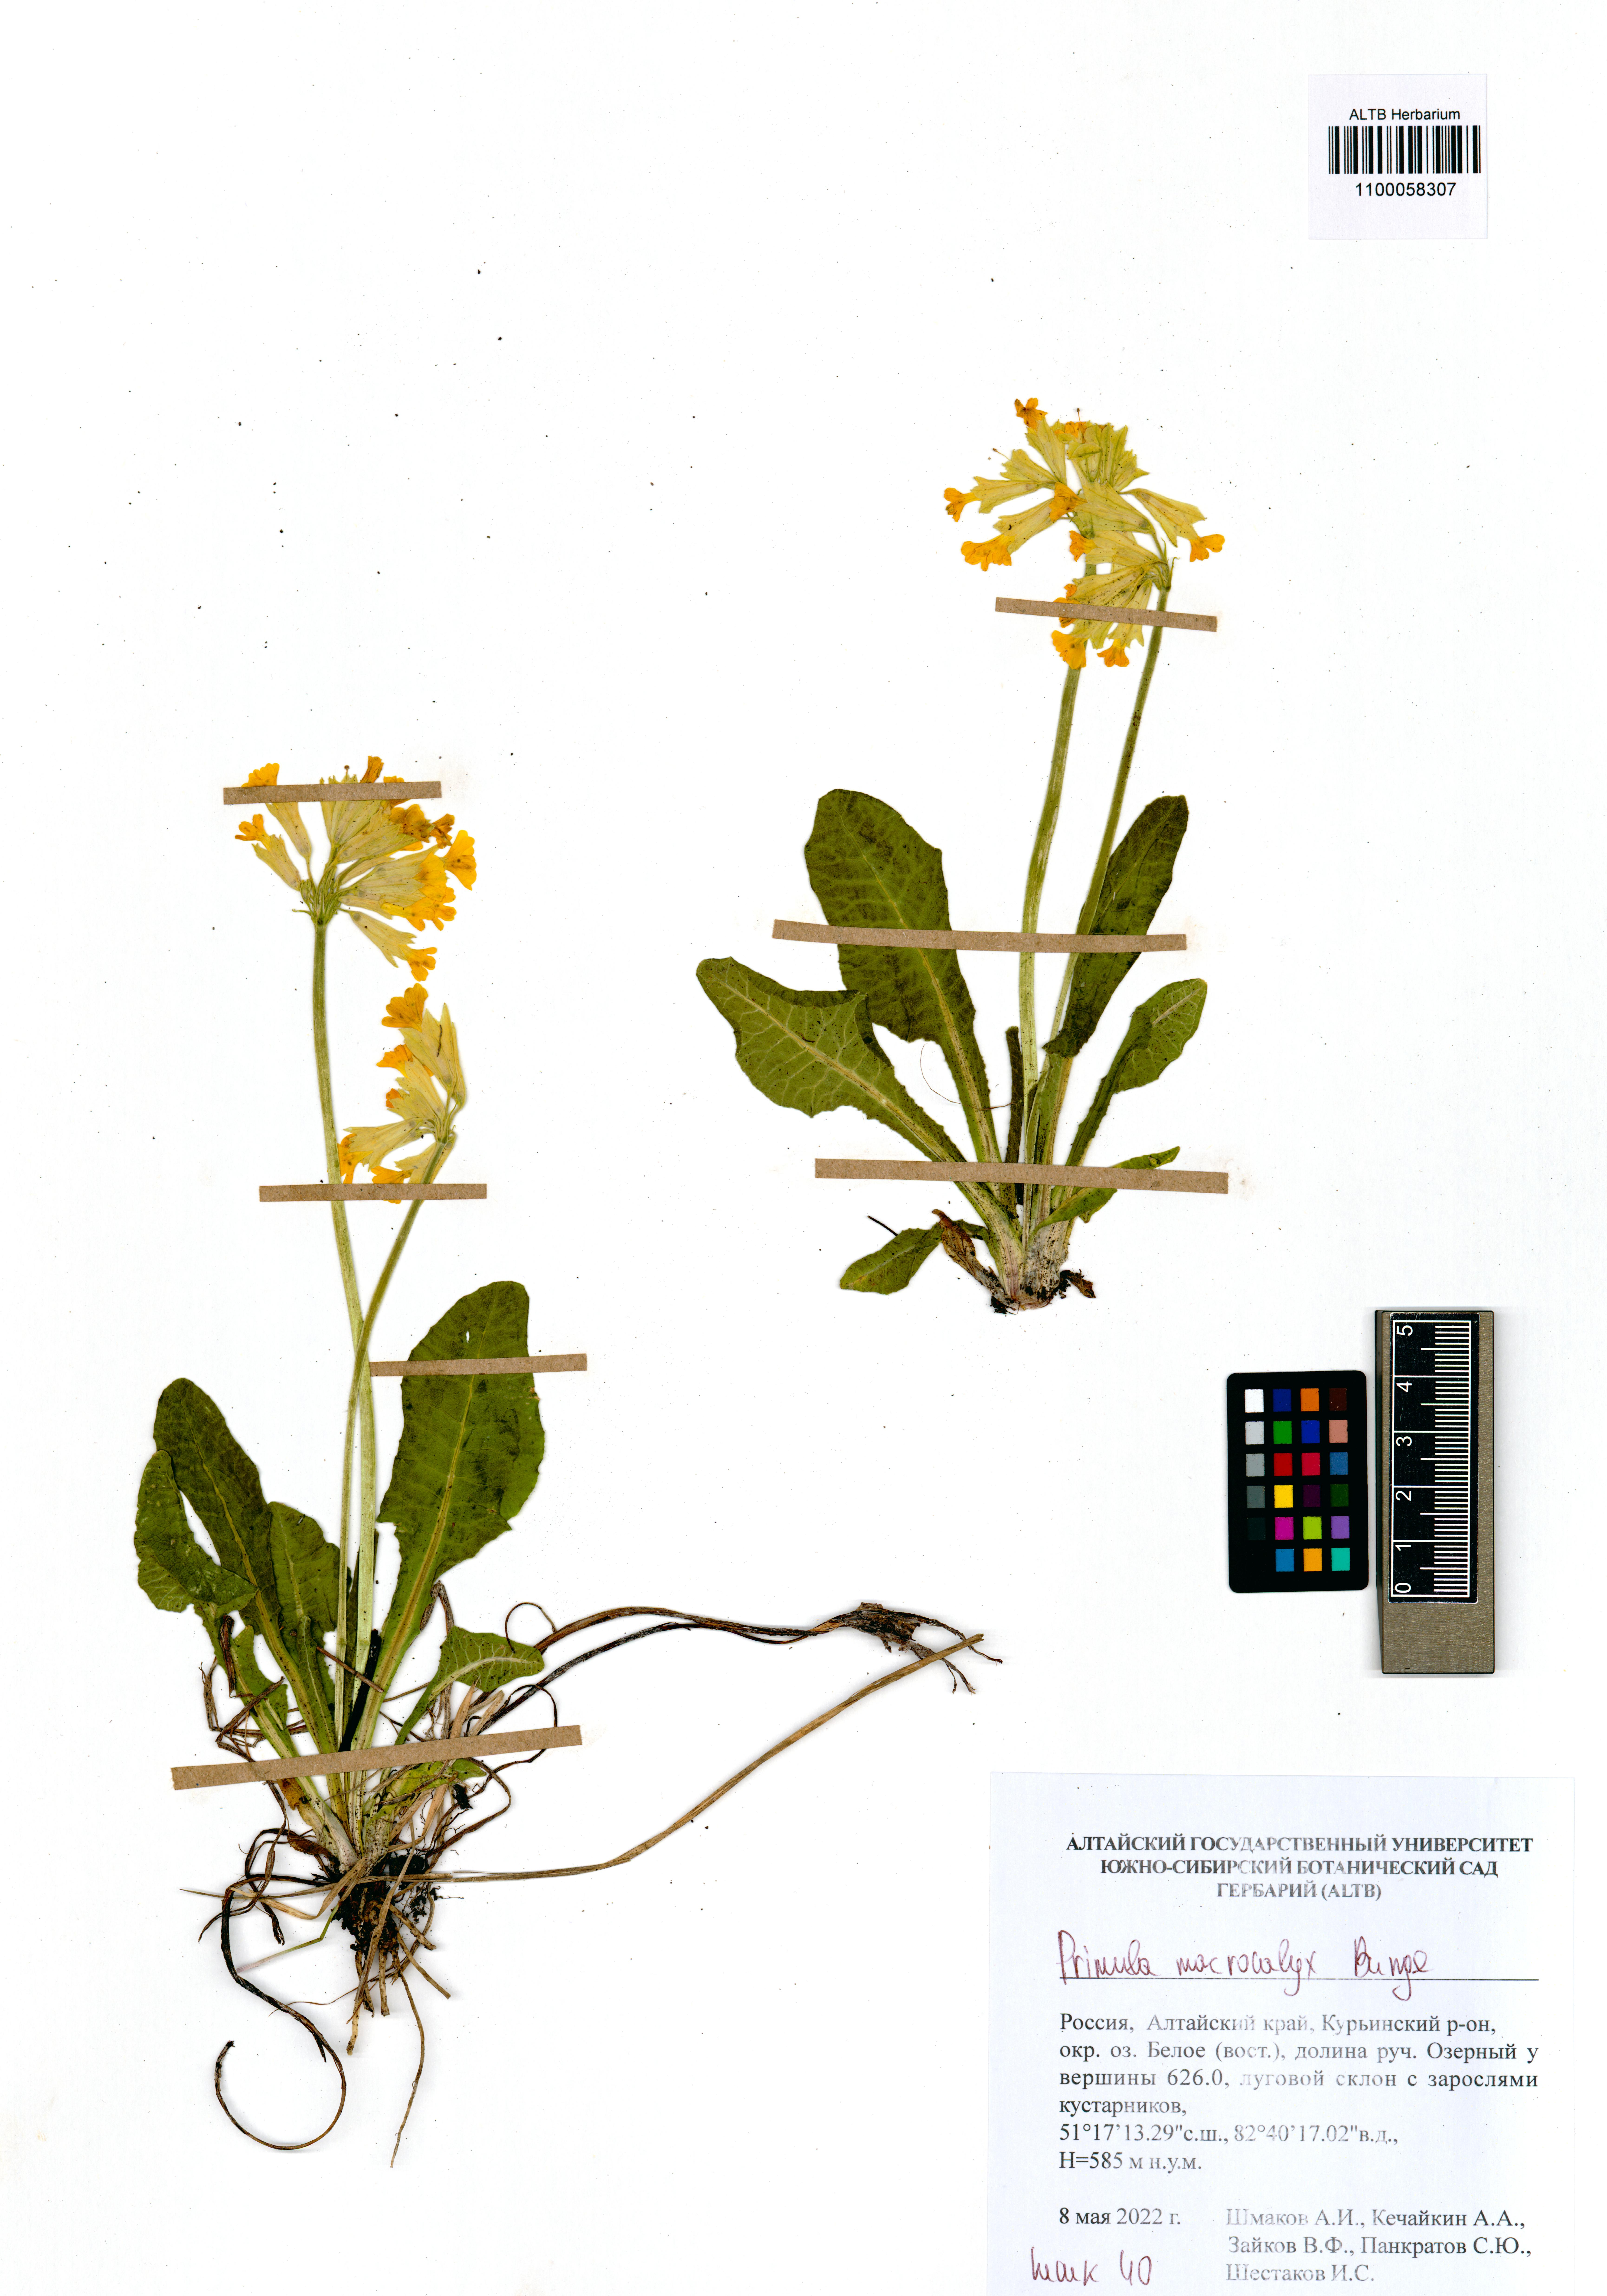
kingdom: Plantae
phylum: Tracheophyta
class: Magnoliopsida
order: Ericales
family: Primulaceae
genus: Primula
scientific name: Primula veris
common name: Cowslip
